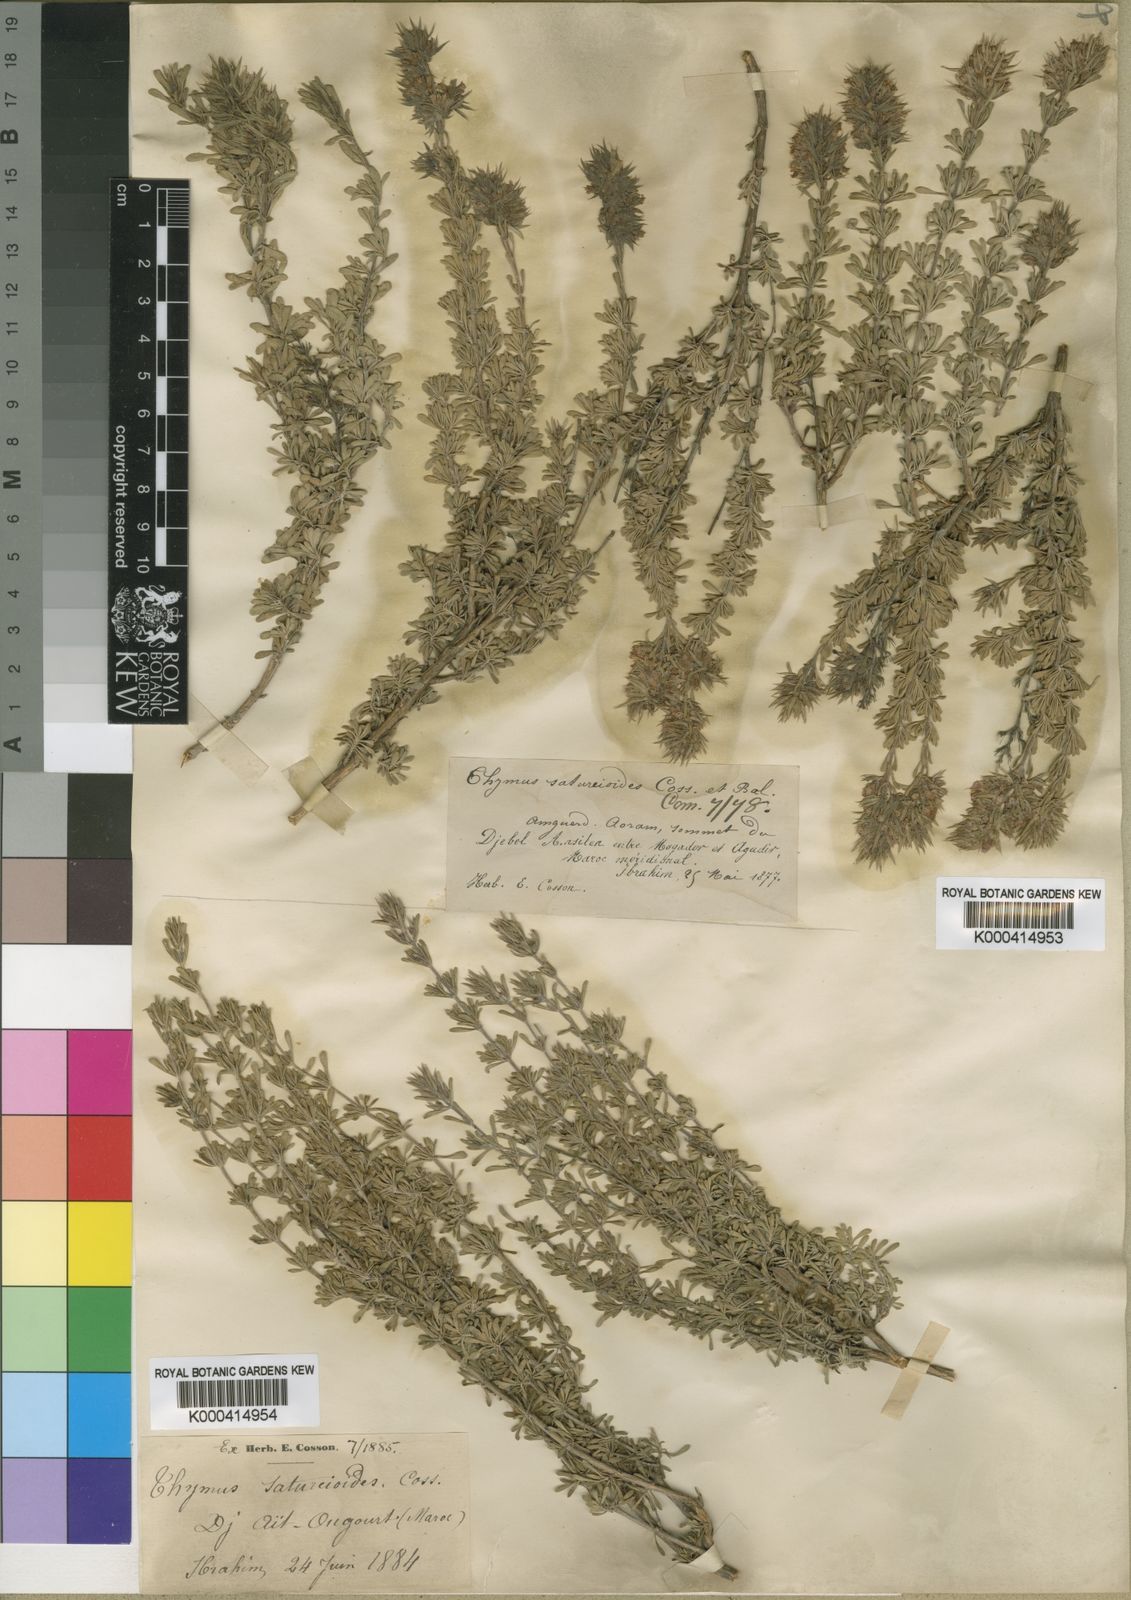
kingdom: Plantae
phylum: Tracheophyta
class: Magnoliopsida
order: Lamiales
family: Lamiaceae
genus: Thymus
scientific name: Thymus
